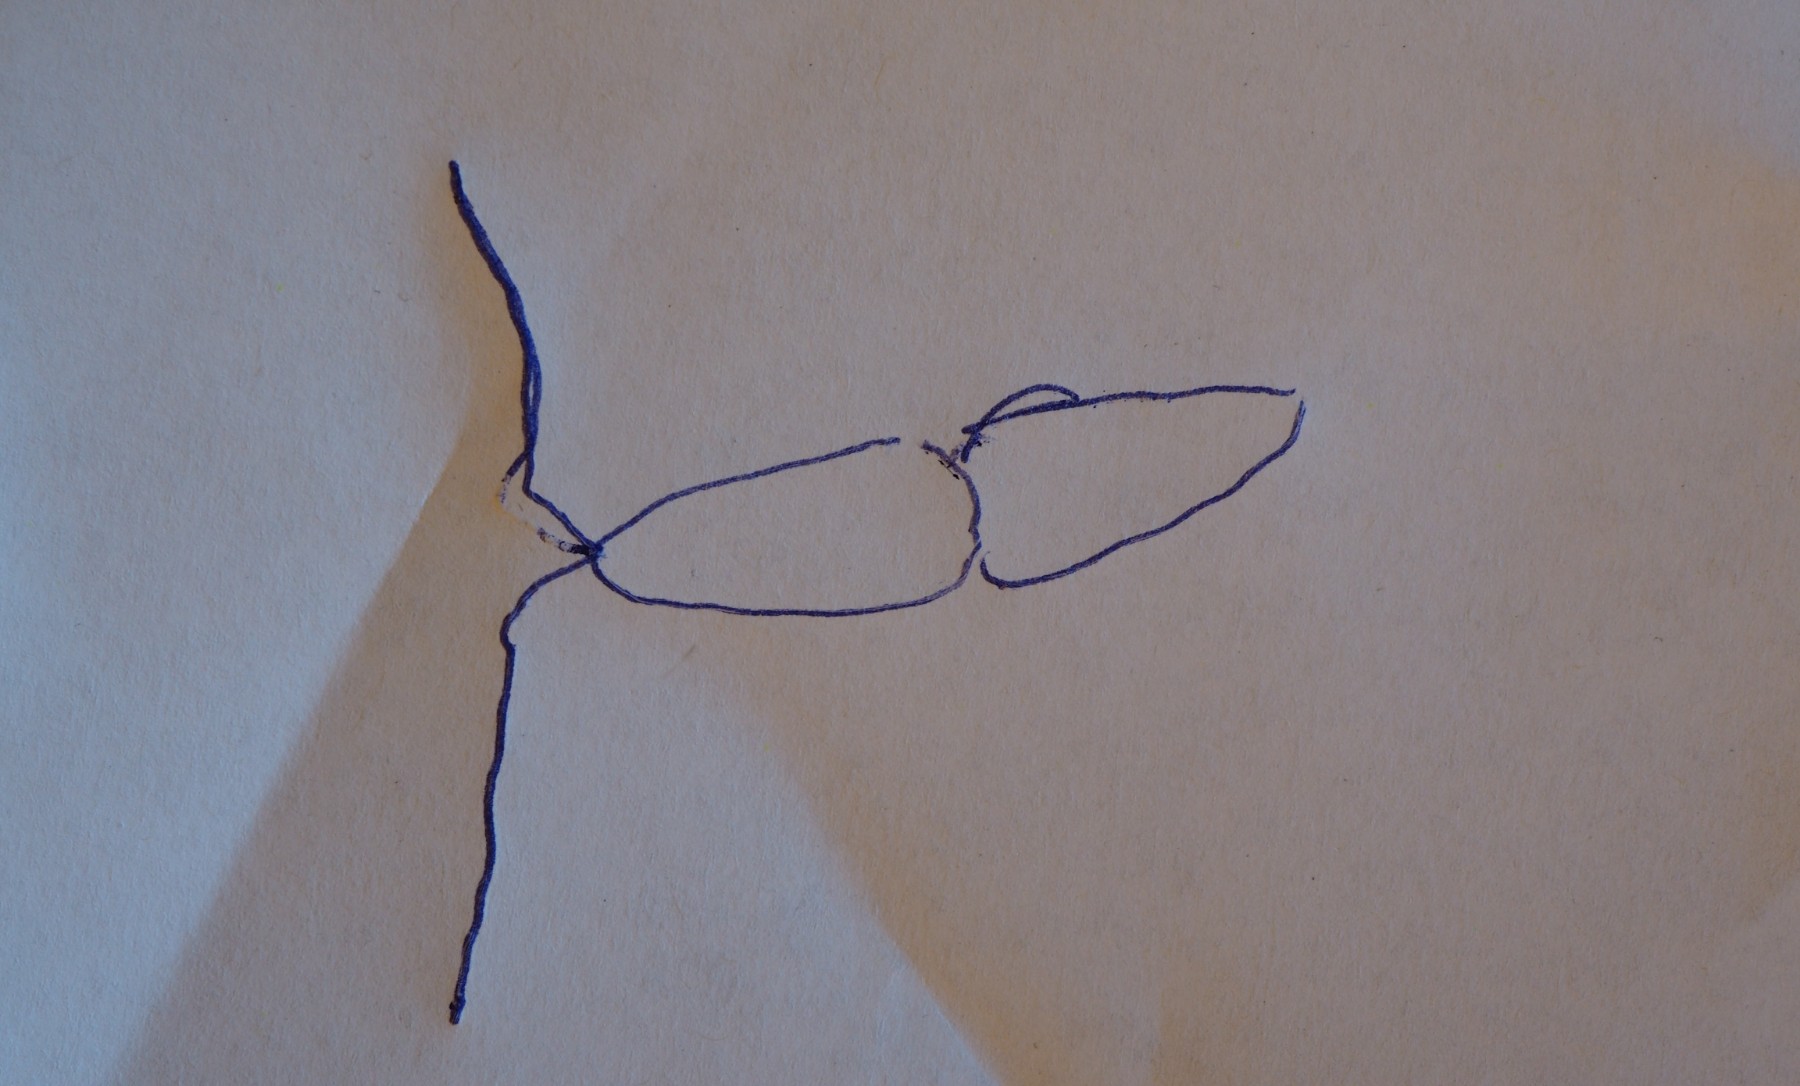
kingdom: Fungi
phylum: Ascomycota
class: Dothideomycetes
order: Microthyriales
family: Microthyriaceae
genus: Microthyrium
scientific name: Microthyrium microscopicum
